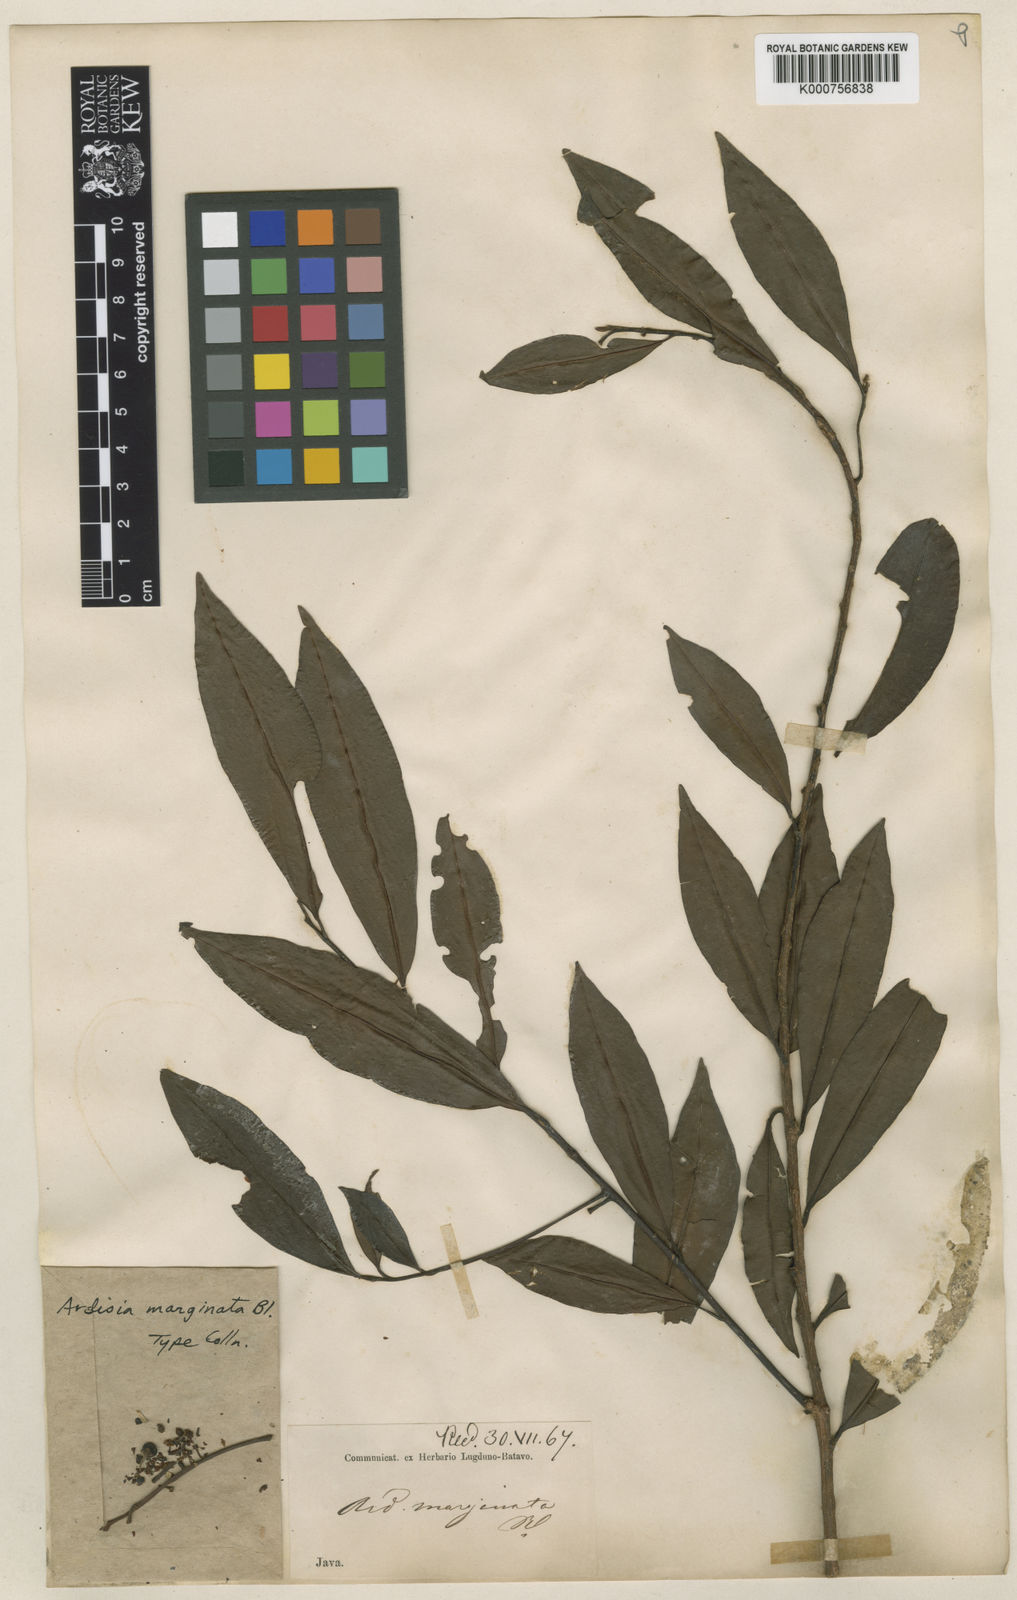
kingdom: Plantae
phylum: Tracheophyta
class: Magnoliopsida
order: Ericales
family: Primulaceae
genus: Ardisia
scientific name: Ardisia marginata
